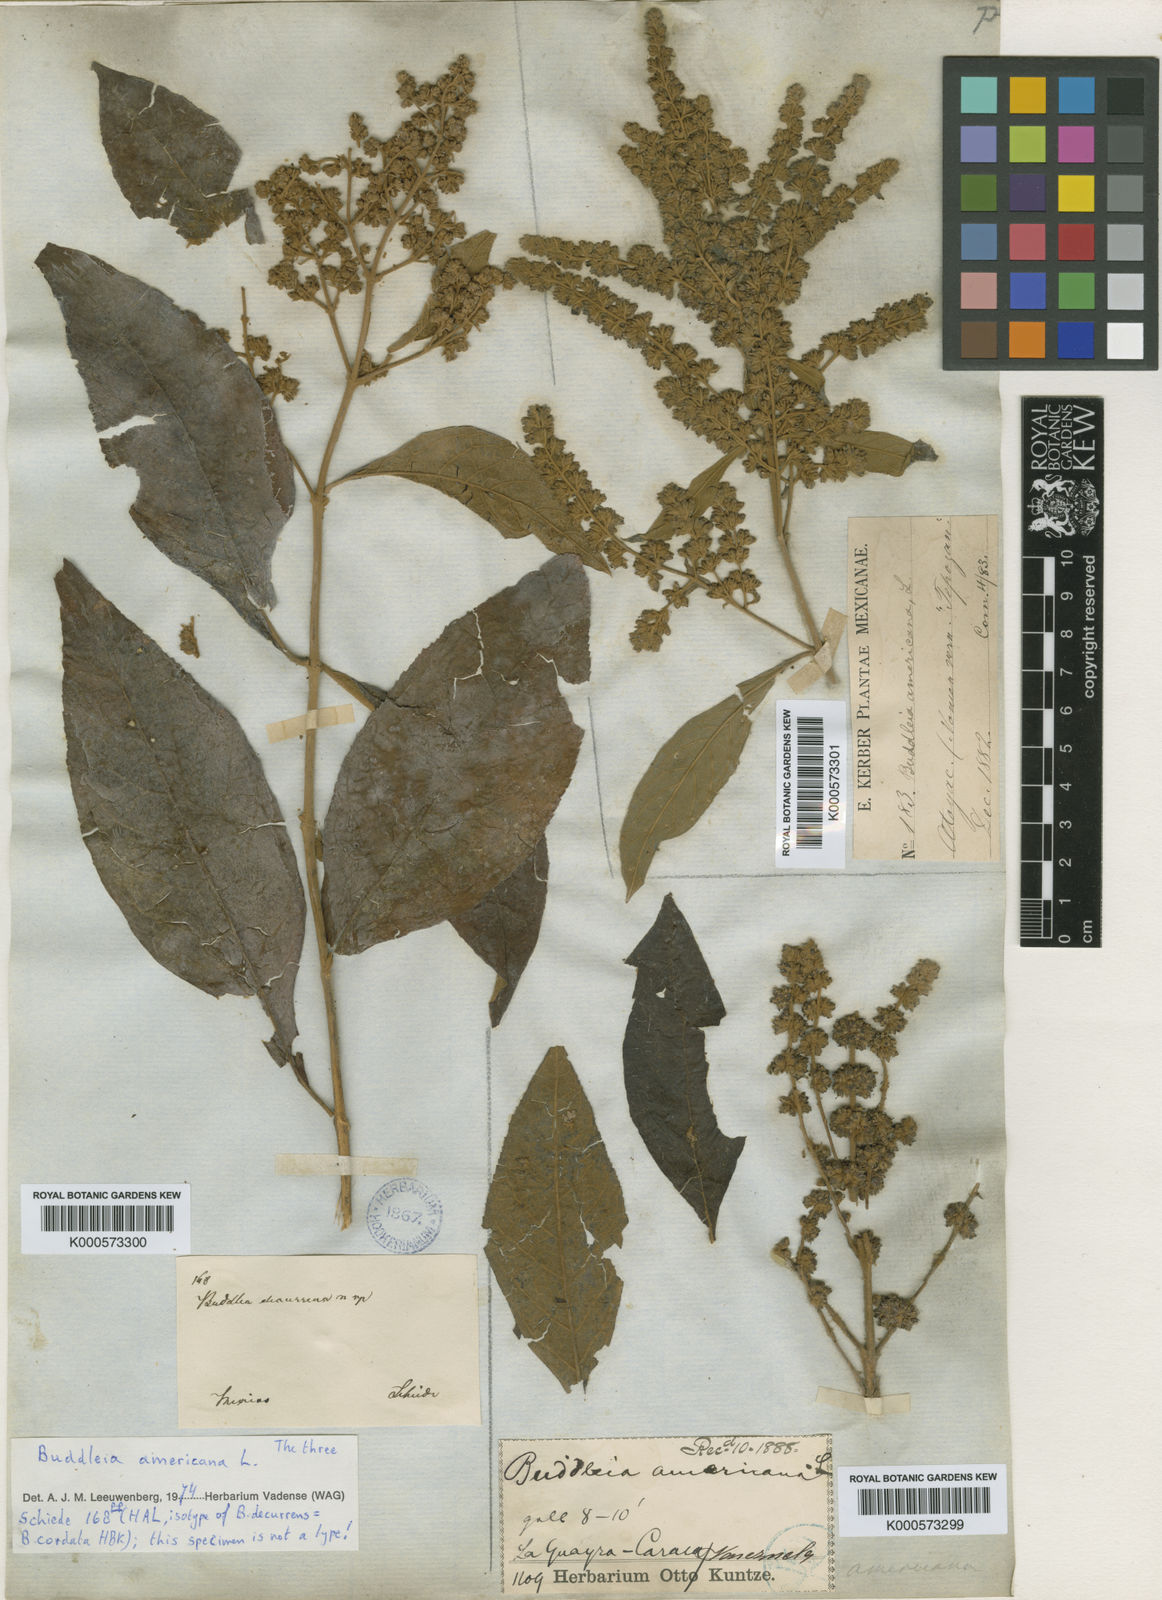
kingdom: Plantae
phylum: Tracheophyta
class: Magnoliopsida
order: Lamiales
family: Scrophulariaceae
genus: Buddleja
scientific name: Buddleja americana
